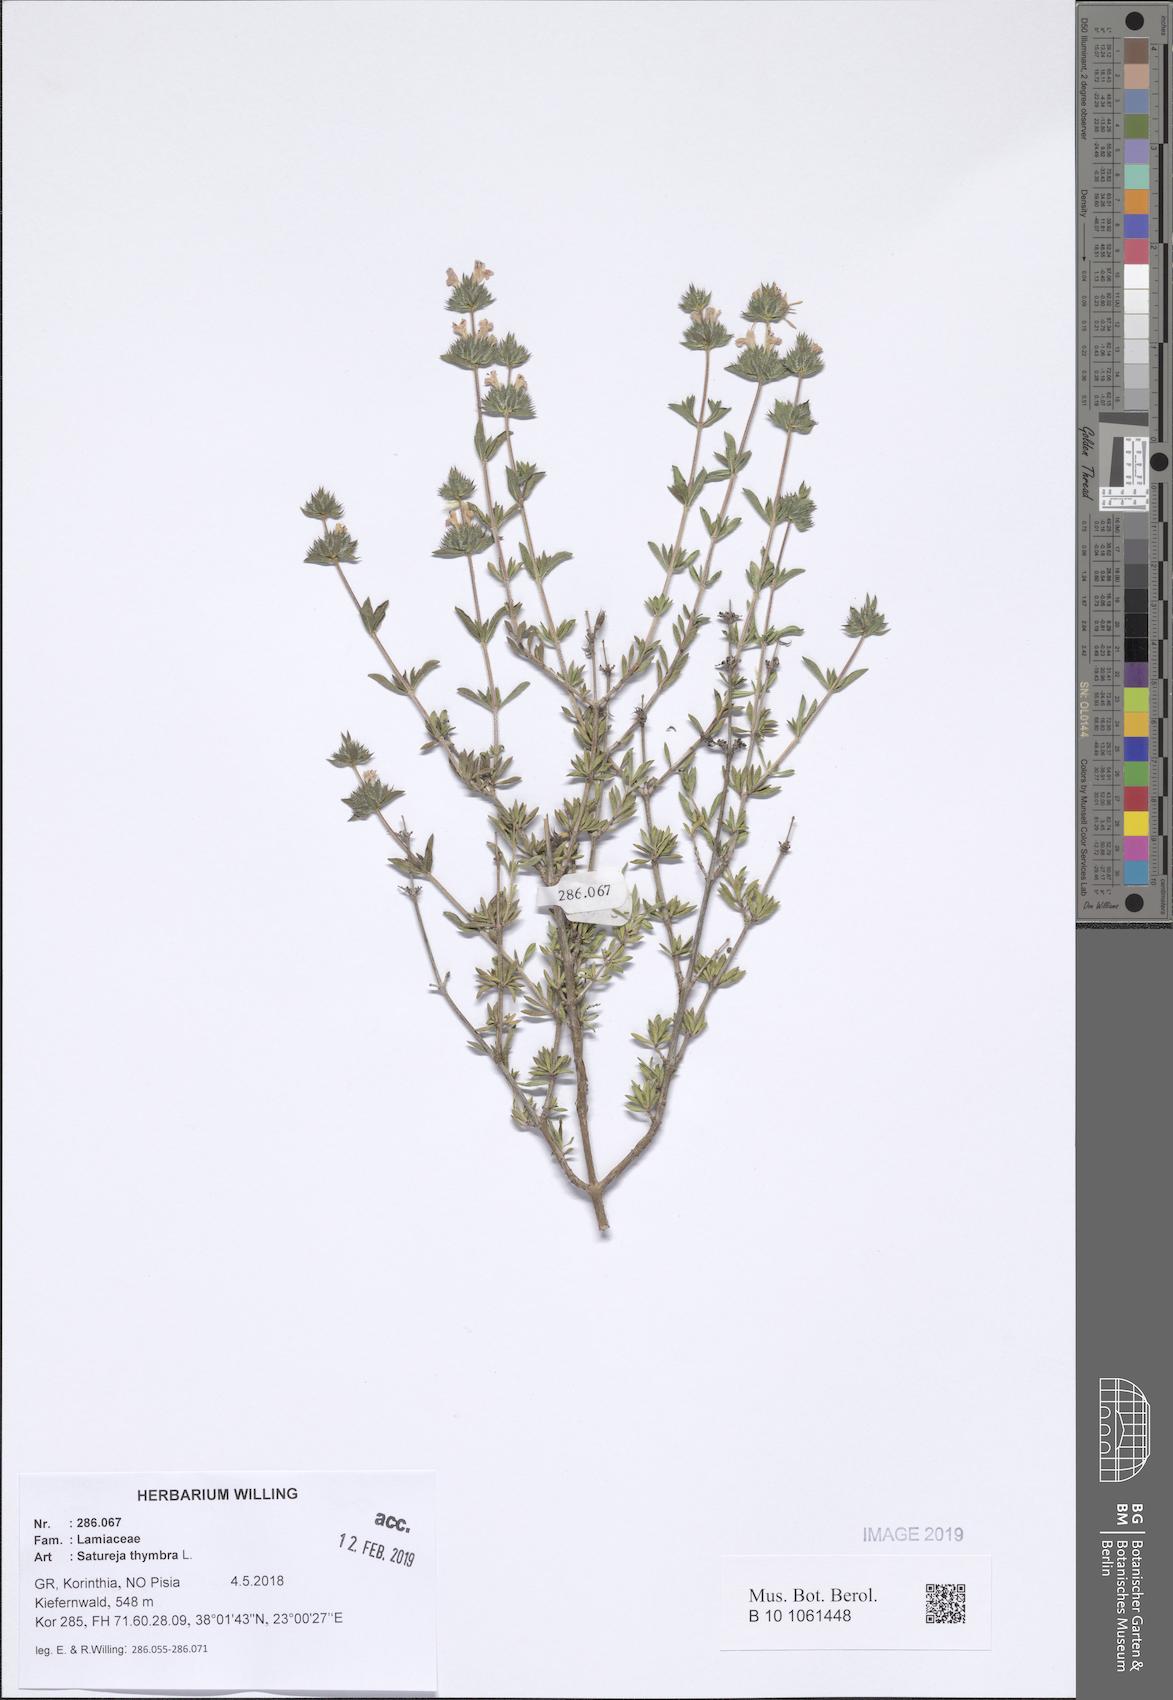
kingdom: Plantae
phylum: Tracheophyta
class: Magnoliopsida
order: Lamiales
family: Lamiaceae
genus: Satureja
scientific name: Satureja thymbra
